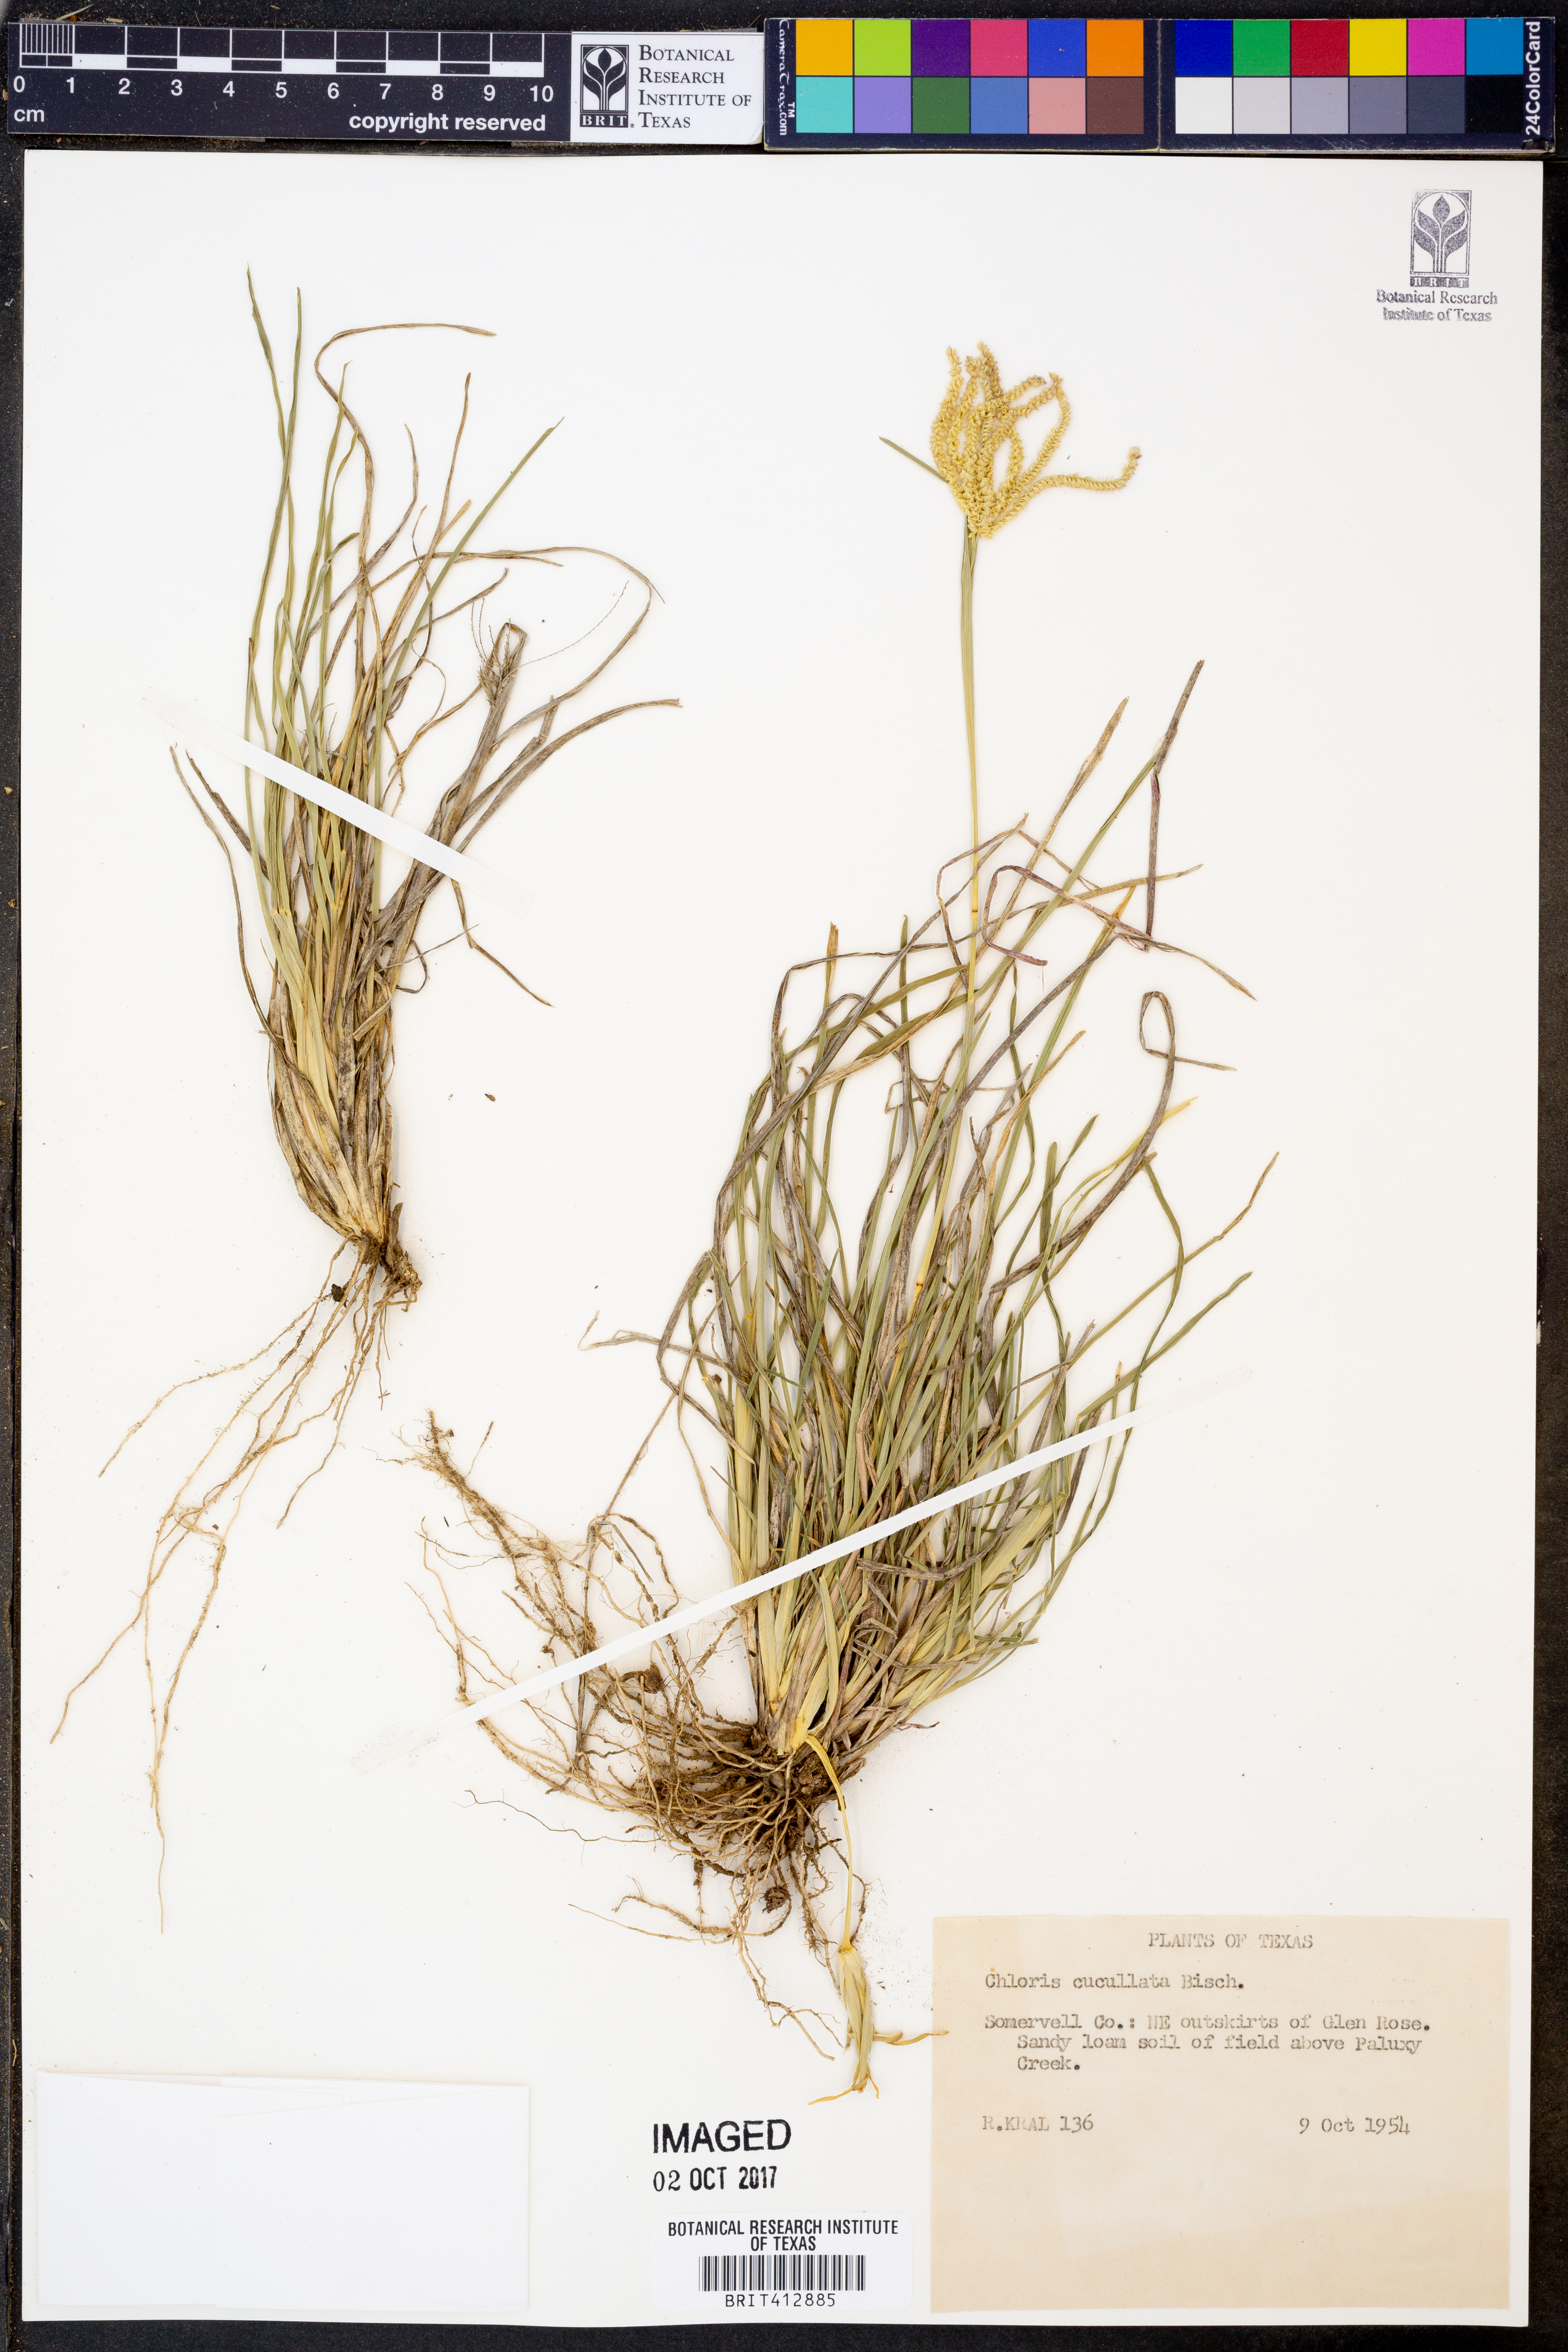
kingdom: Plantae
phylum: Tracheophyta
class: Liliopsida
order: Poales
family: Poaceae
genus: Chloris
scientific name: Chloris cucullata
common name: Hooded windmill grass
